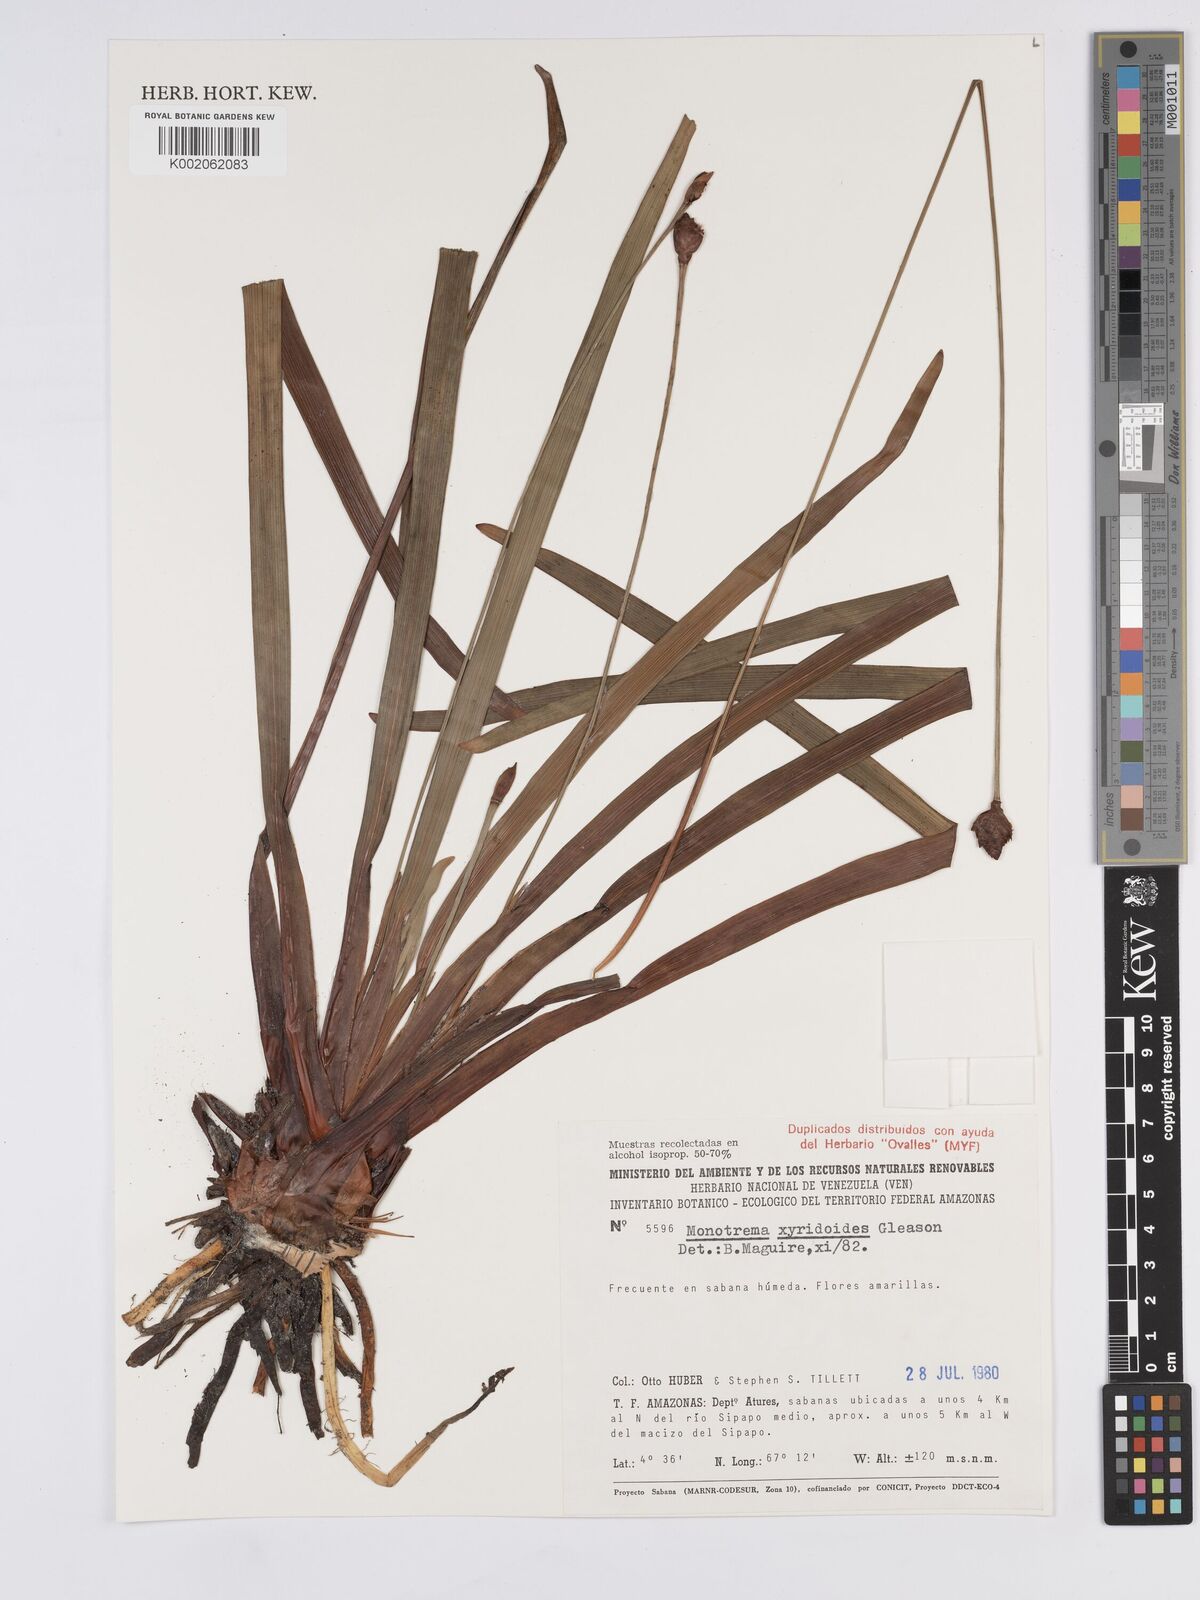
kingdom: Plantae
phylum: Tracheophyta
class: Liliopsida
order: Poales
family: Rapateaceae
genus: Monotrema
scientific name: Monotrema xyridoides
